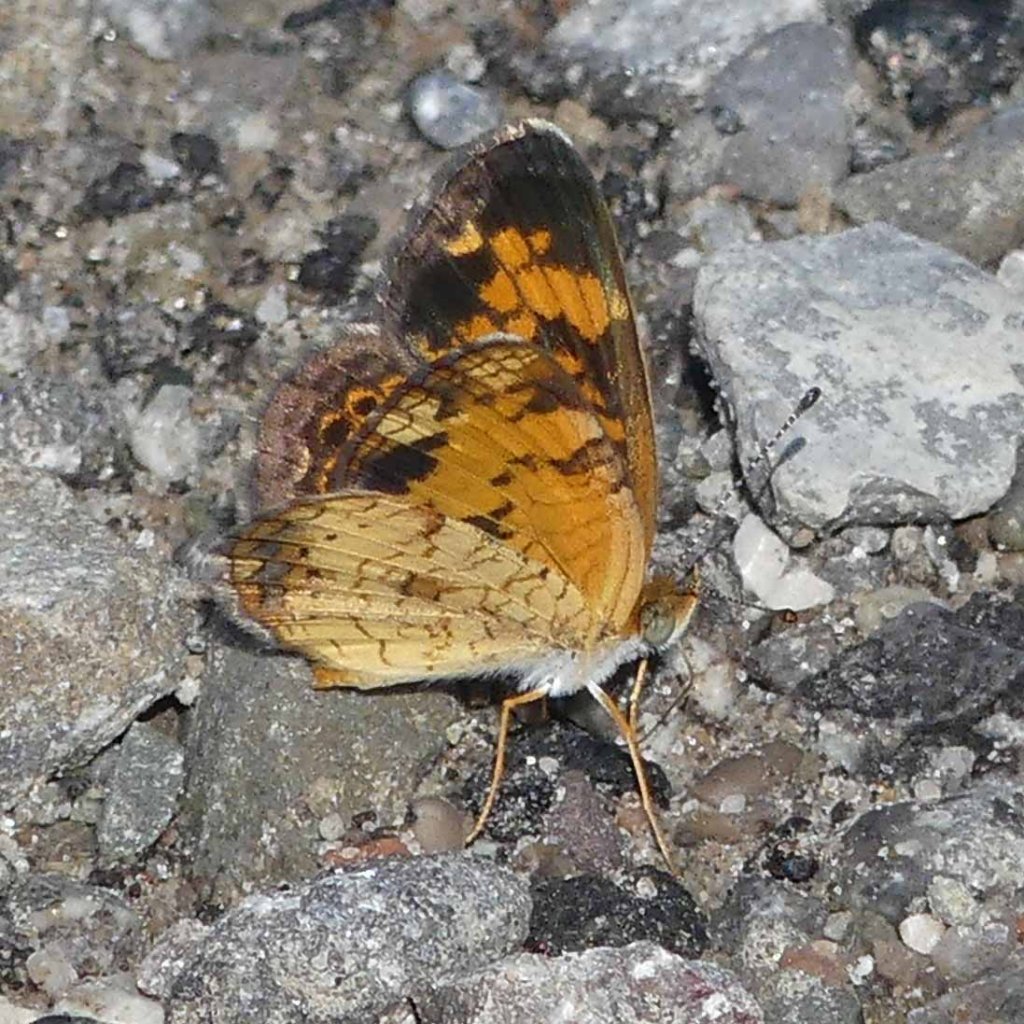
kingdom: Animalia
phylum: Arthropoda
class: Insecta
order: Lepidoptera
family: Nymphalidae
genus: Phyciodes
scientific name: Phyciodes tharos
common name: Pearl Crescent
